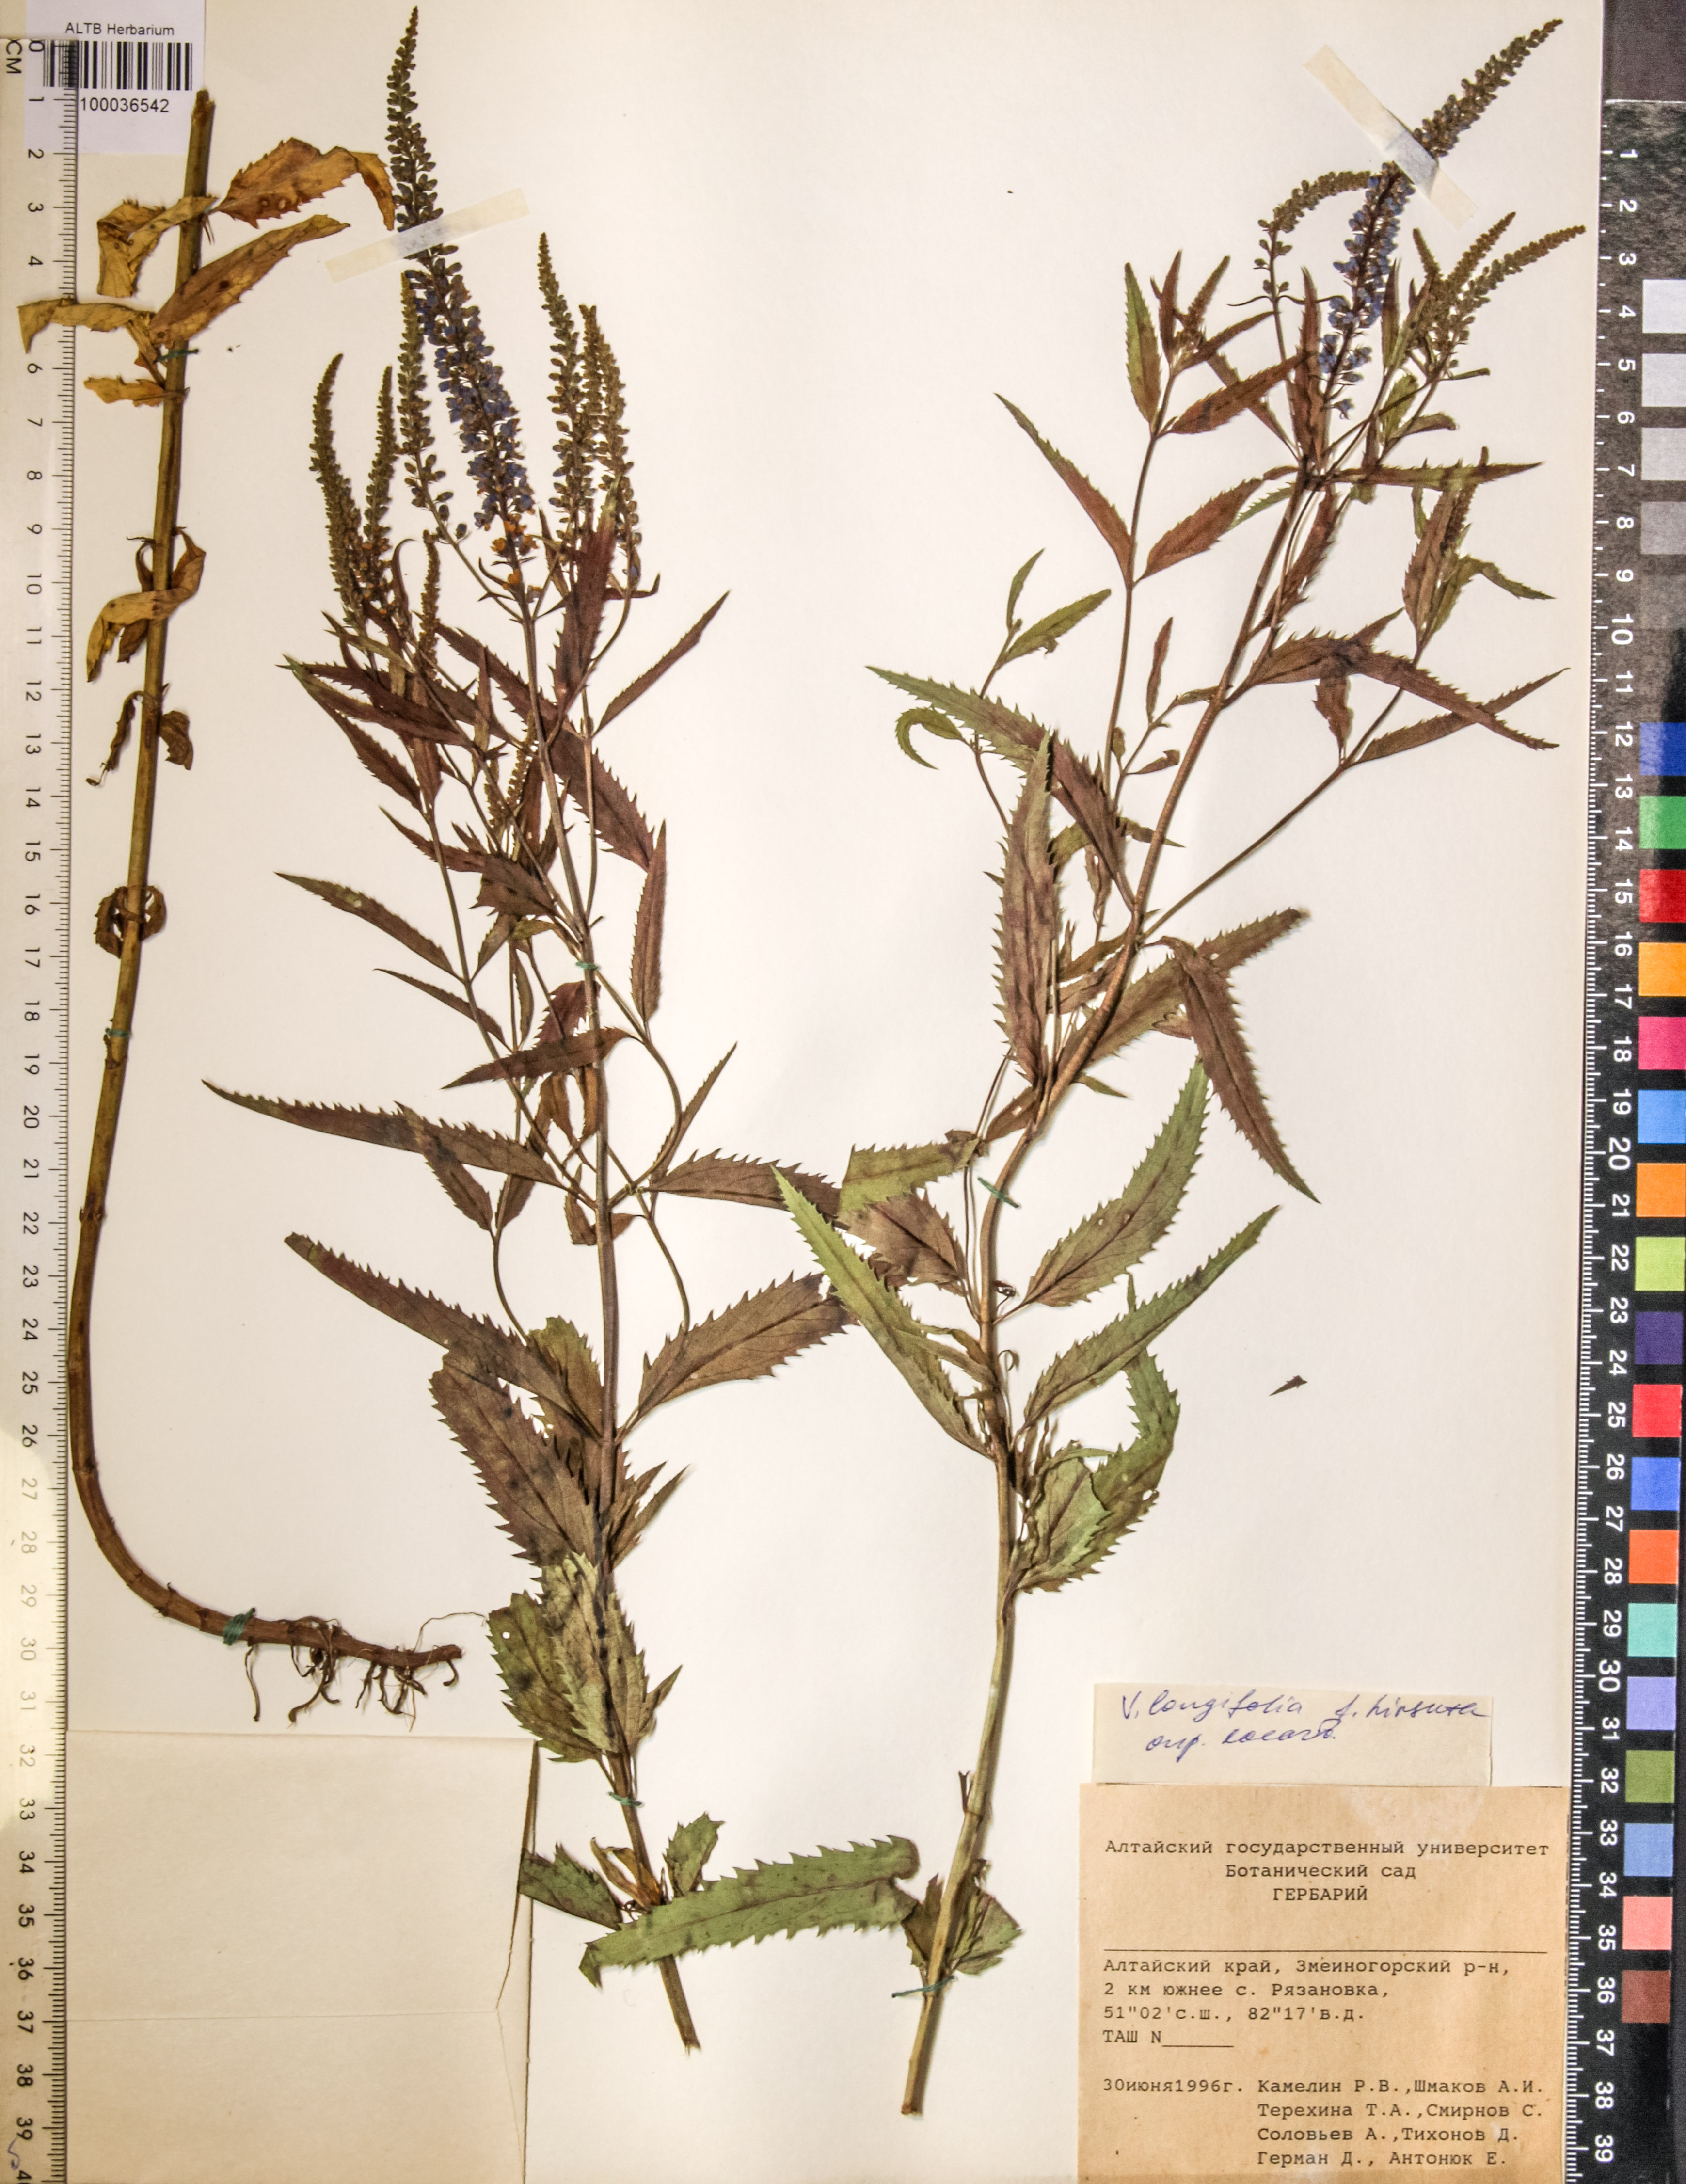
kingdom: Plantae
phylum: Tracheophyta
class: Magnoliopsida
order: Lamiales
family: Plantaginaceae
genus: Veronica
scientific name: Veronica longifolia
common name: Garden speedwell
